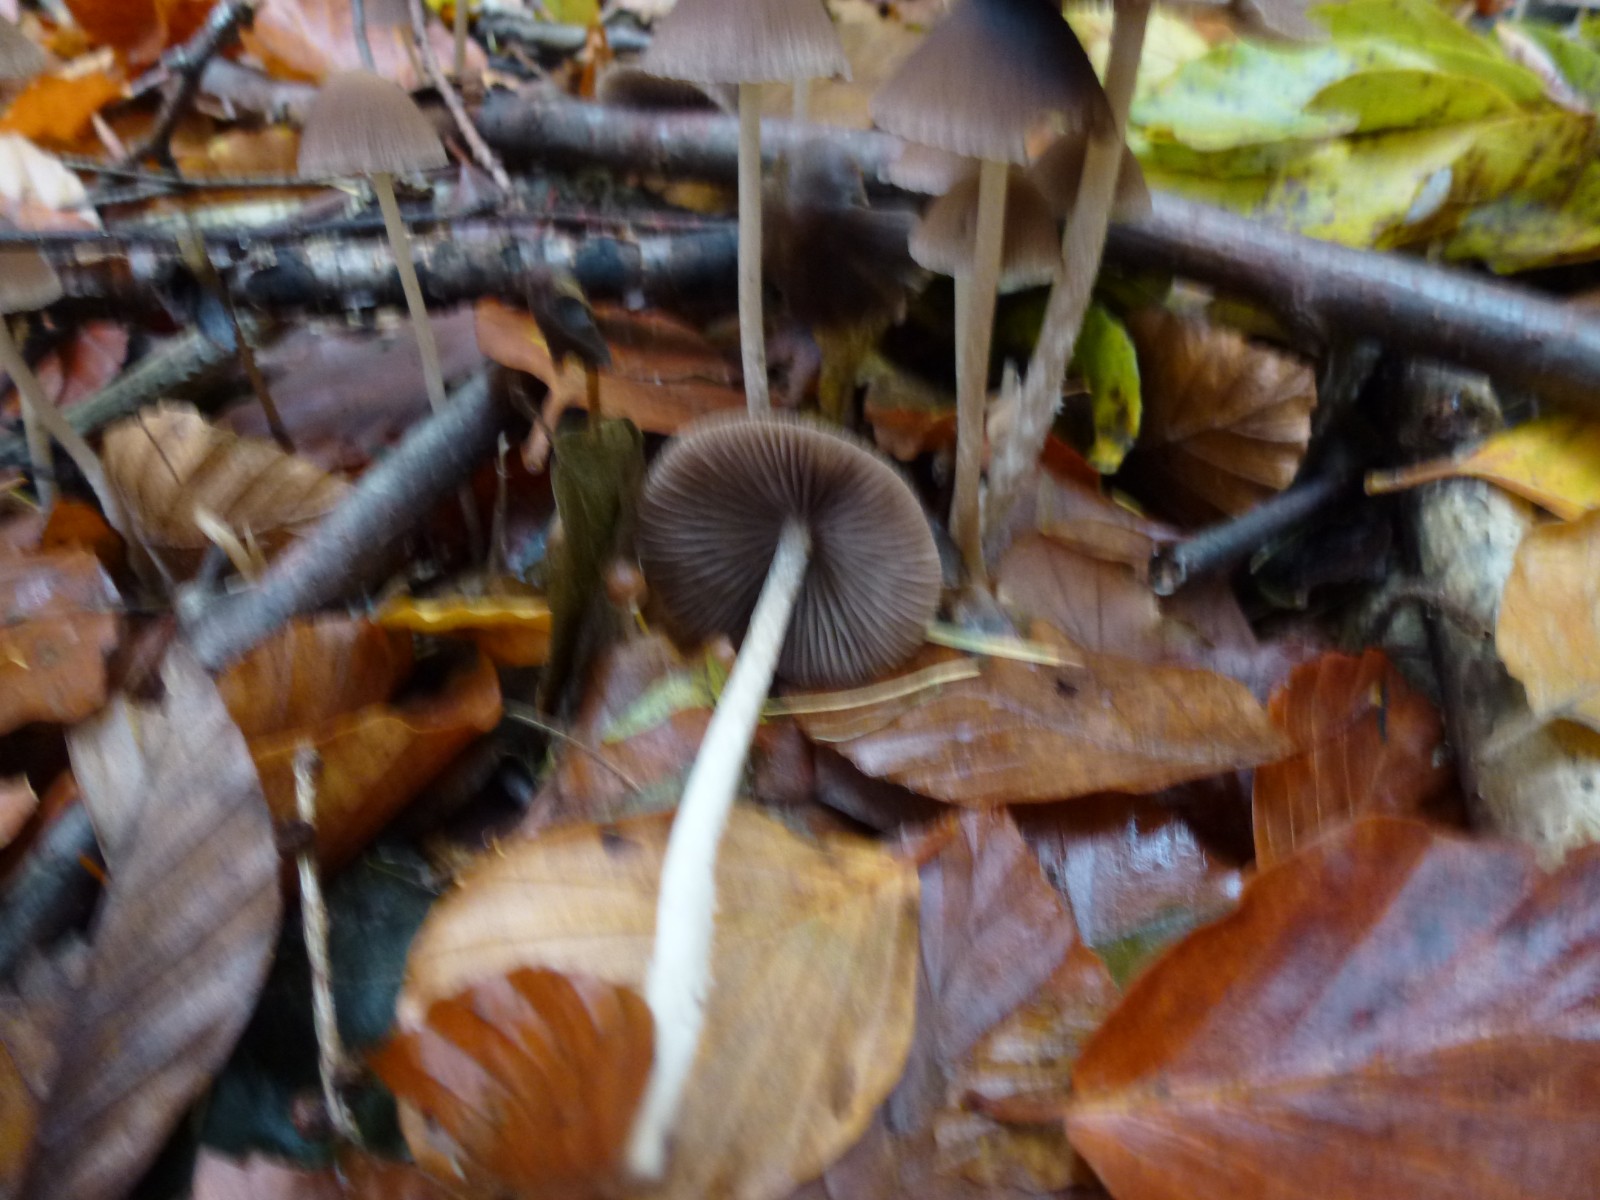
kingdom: Fungi
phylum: Basidiomycota
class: Agaricomycetes
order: Agaricales
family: Psathyrellaceae
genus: Psathyrella
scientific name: Psathyrella
